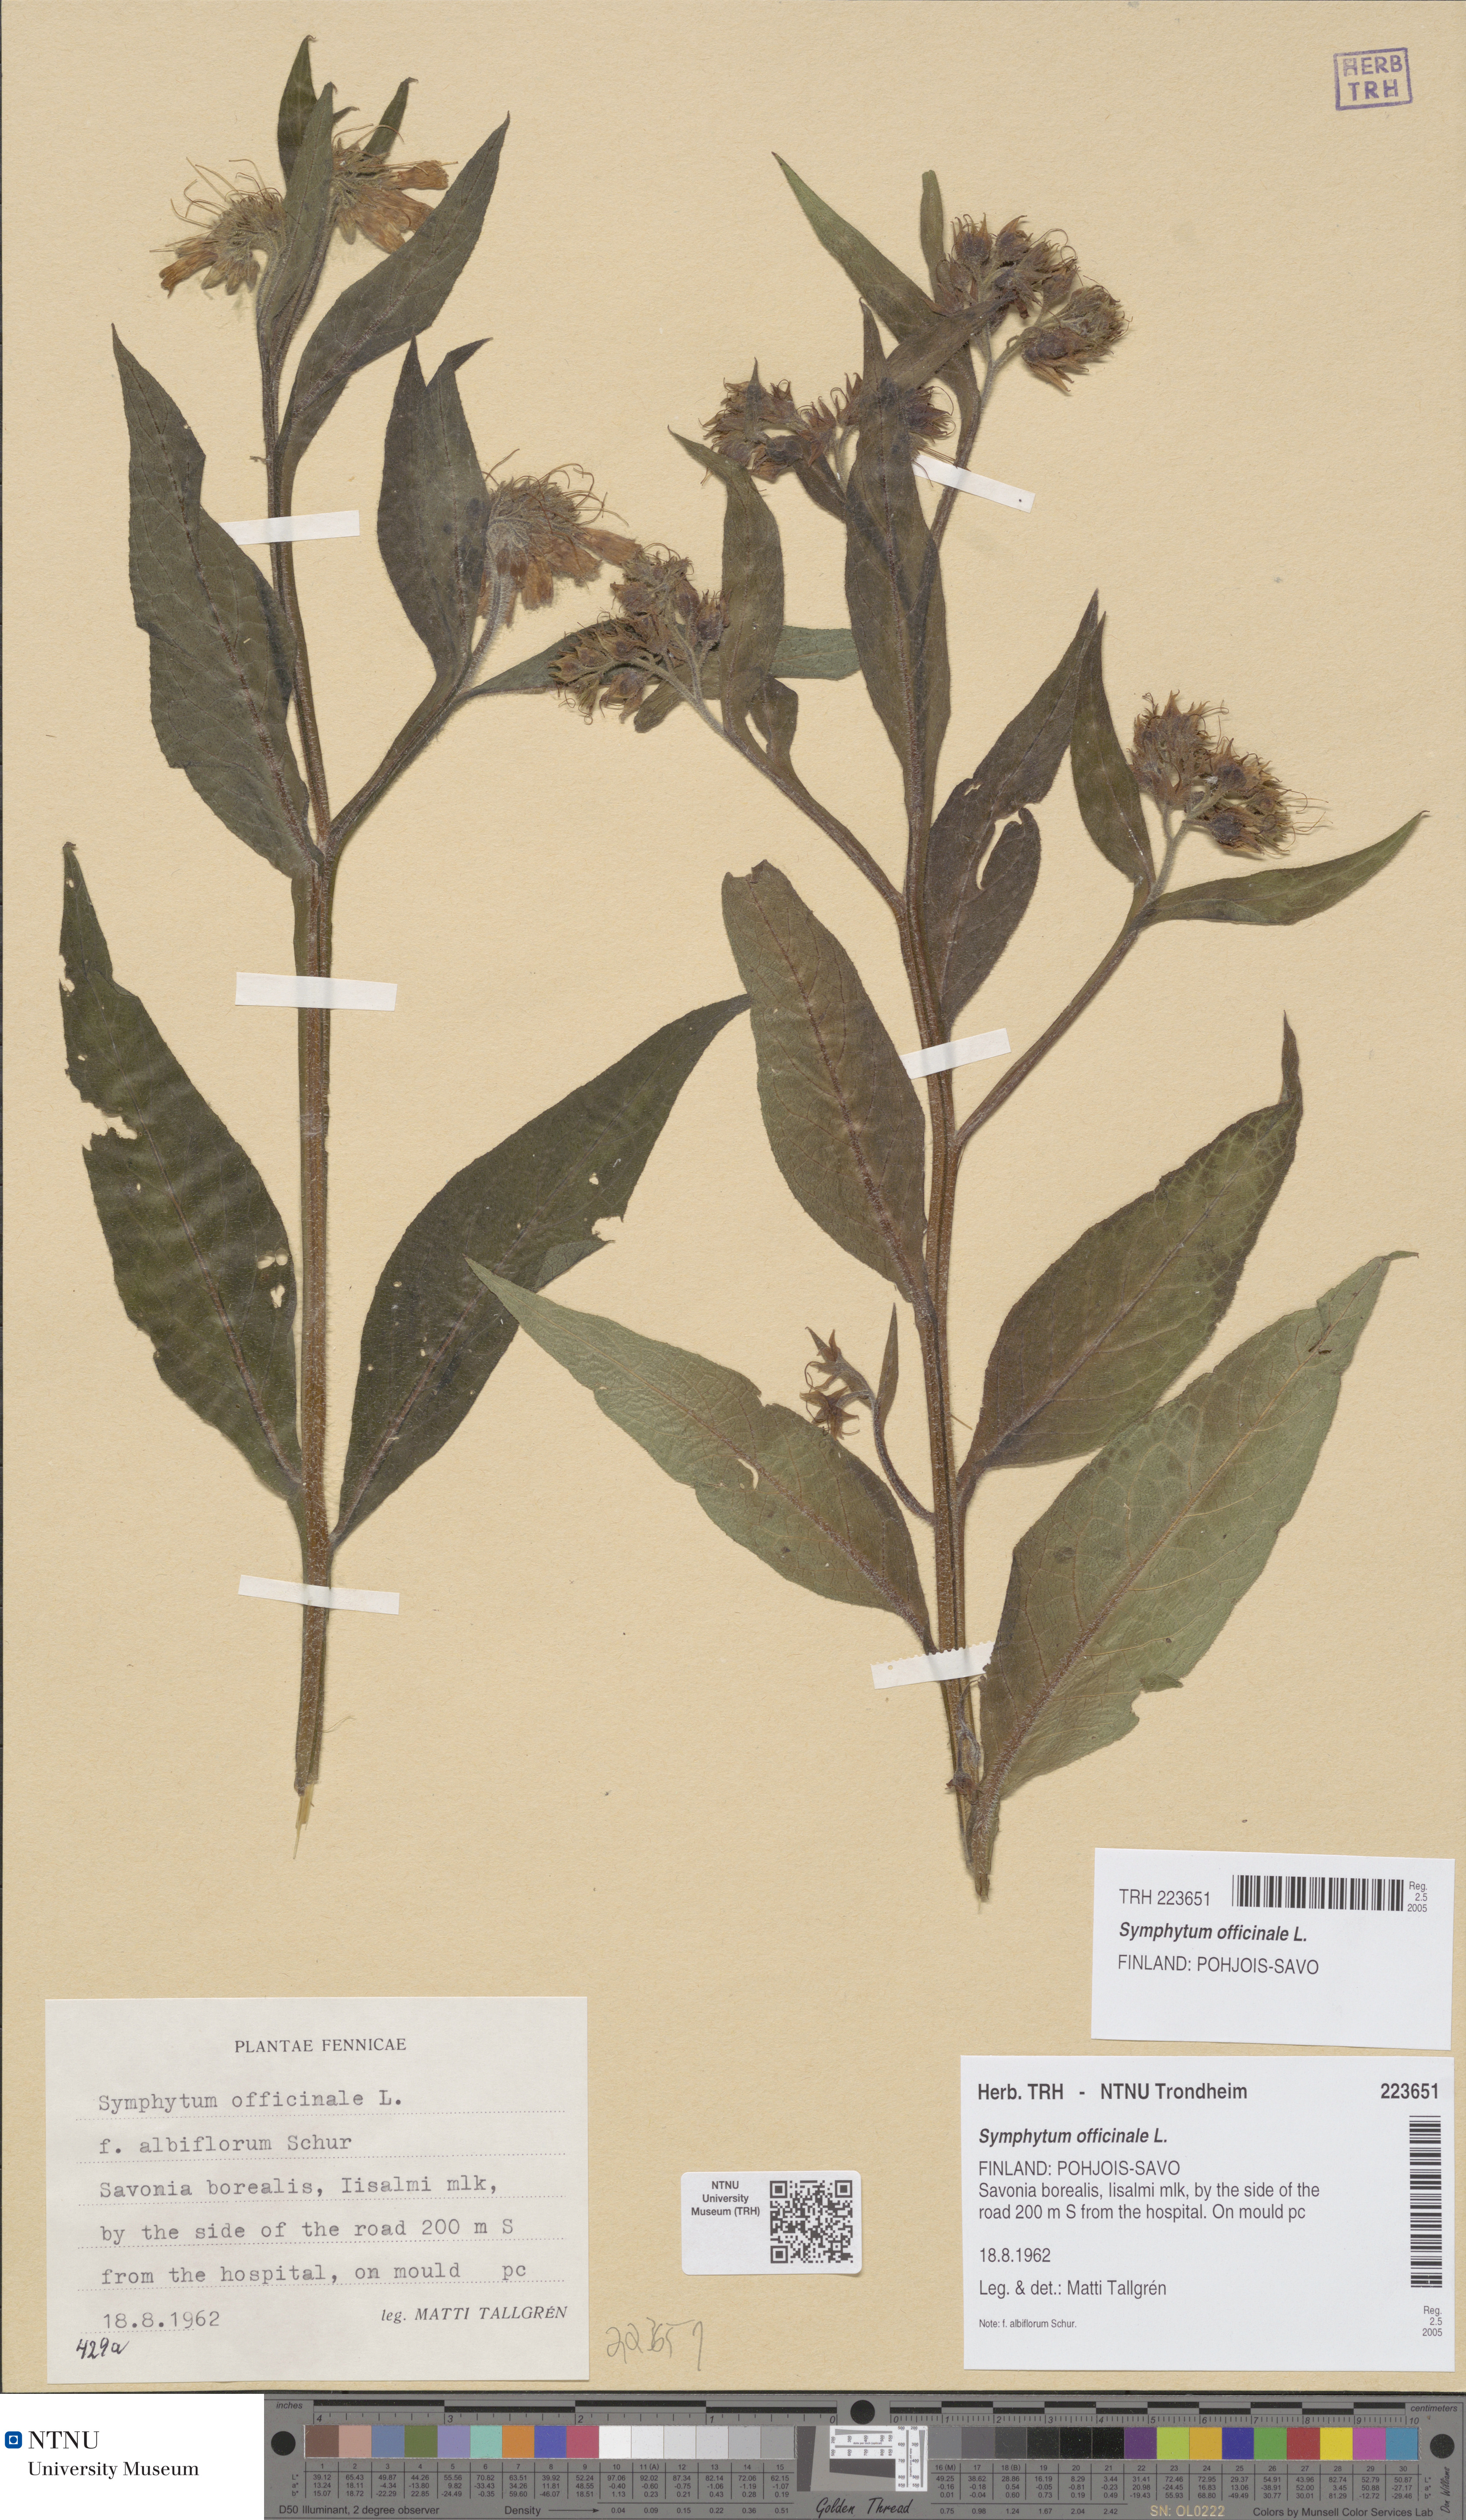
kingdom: Plantae
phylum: Tracheophyta
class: Magnoliopsida
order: Boraginales
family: Boraginaceae
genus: Symphytum
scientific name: Symphytum officinale
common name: Common comfrey
